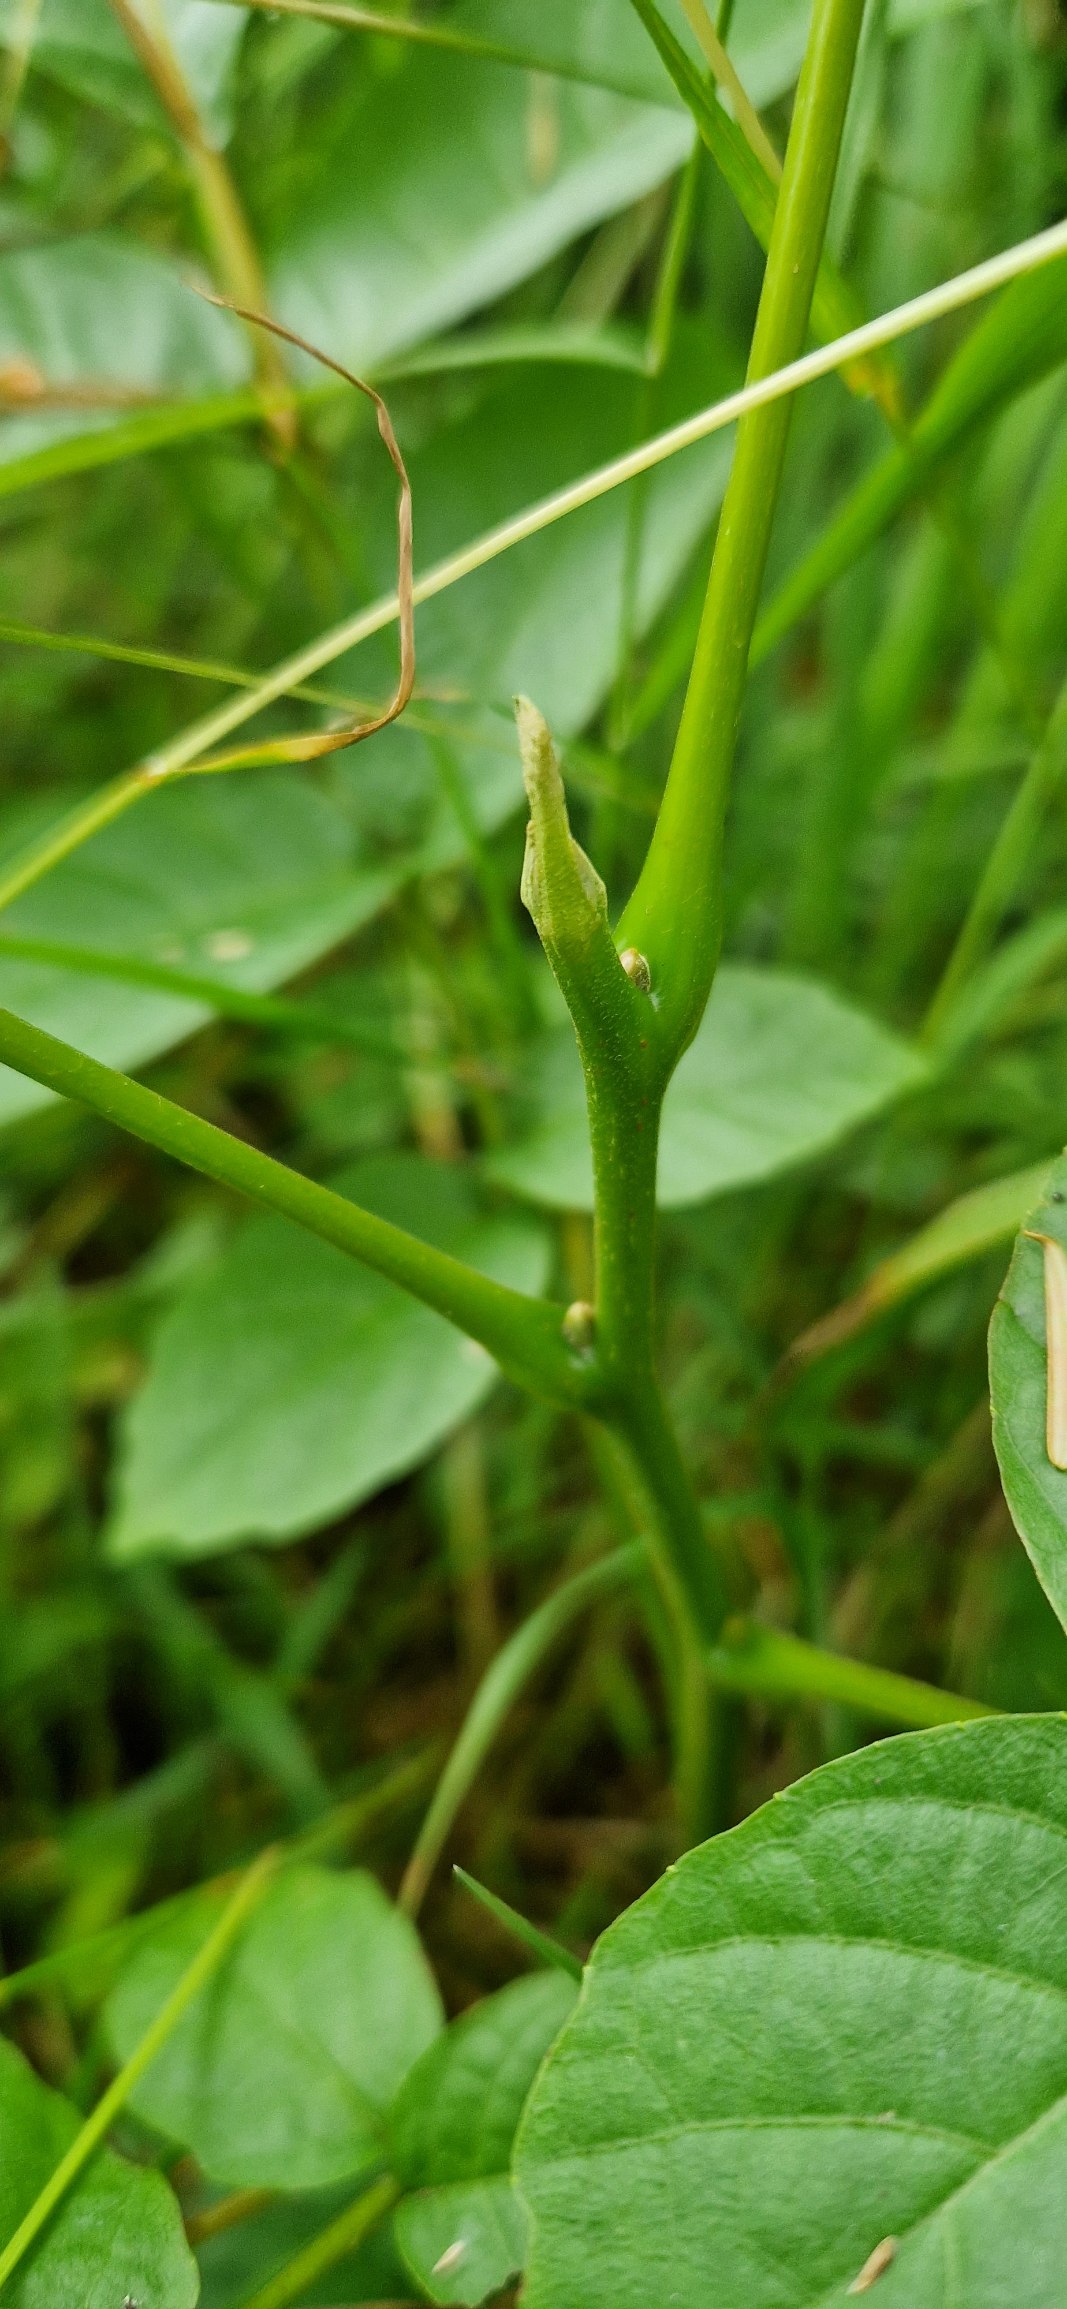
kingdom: Plantae
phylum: Tracheophyta
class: Magnoliopsida
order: Fagales
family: Juglandaceae
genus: Juglans
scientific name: Juglans regia
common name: Almindelig valnød
